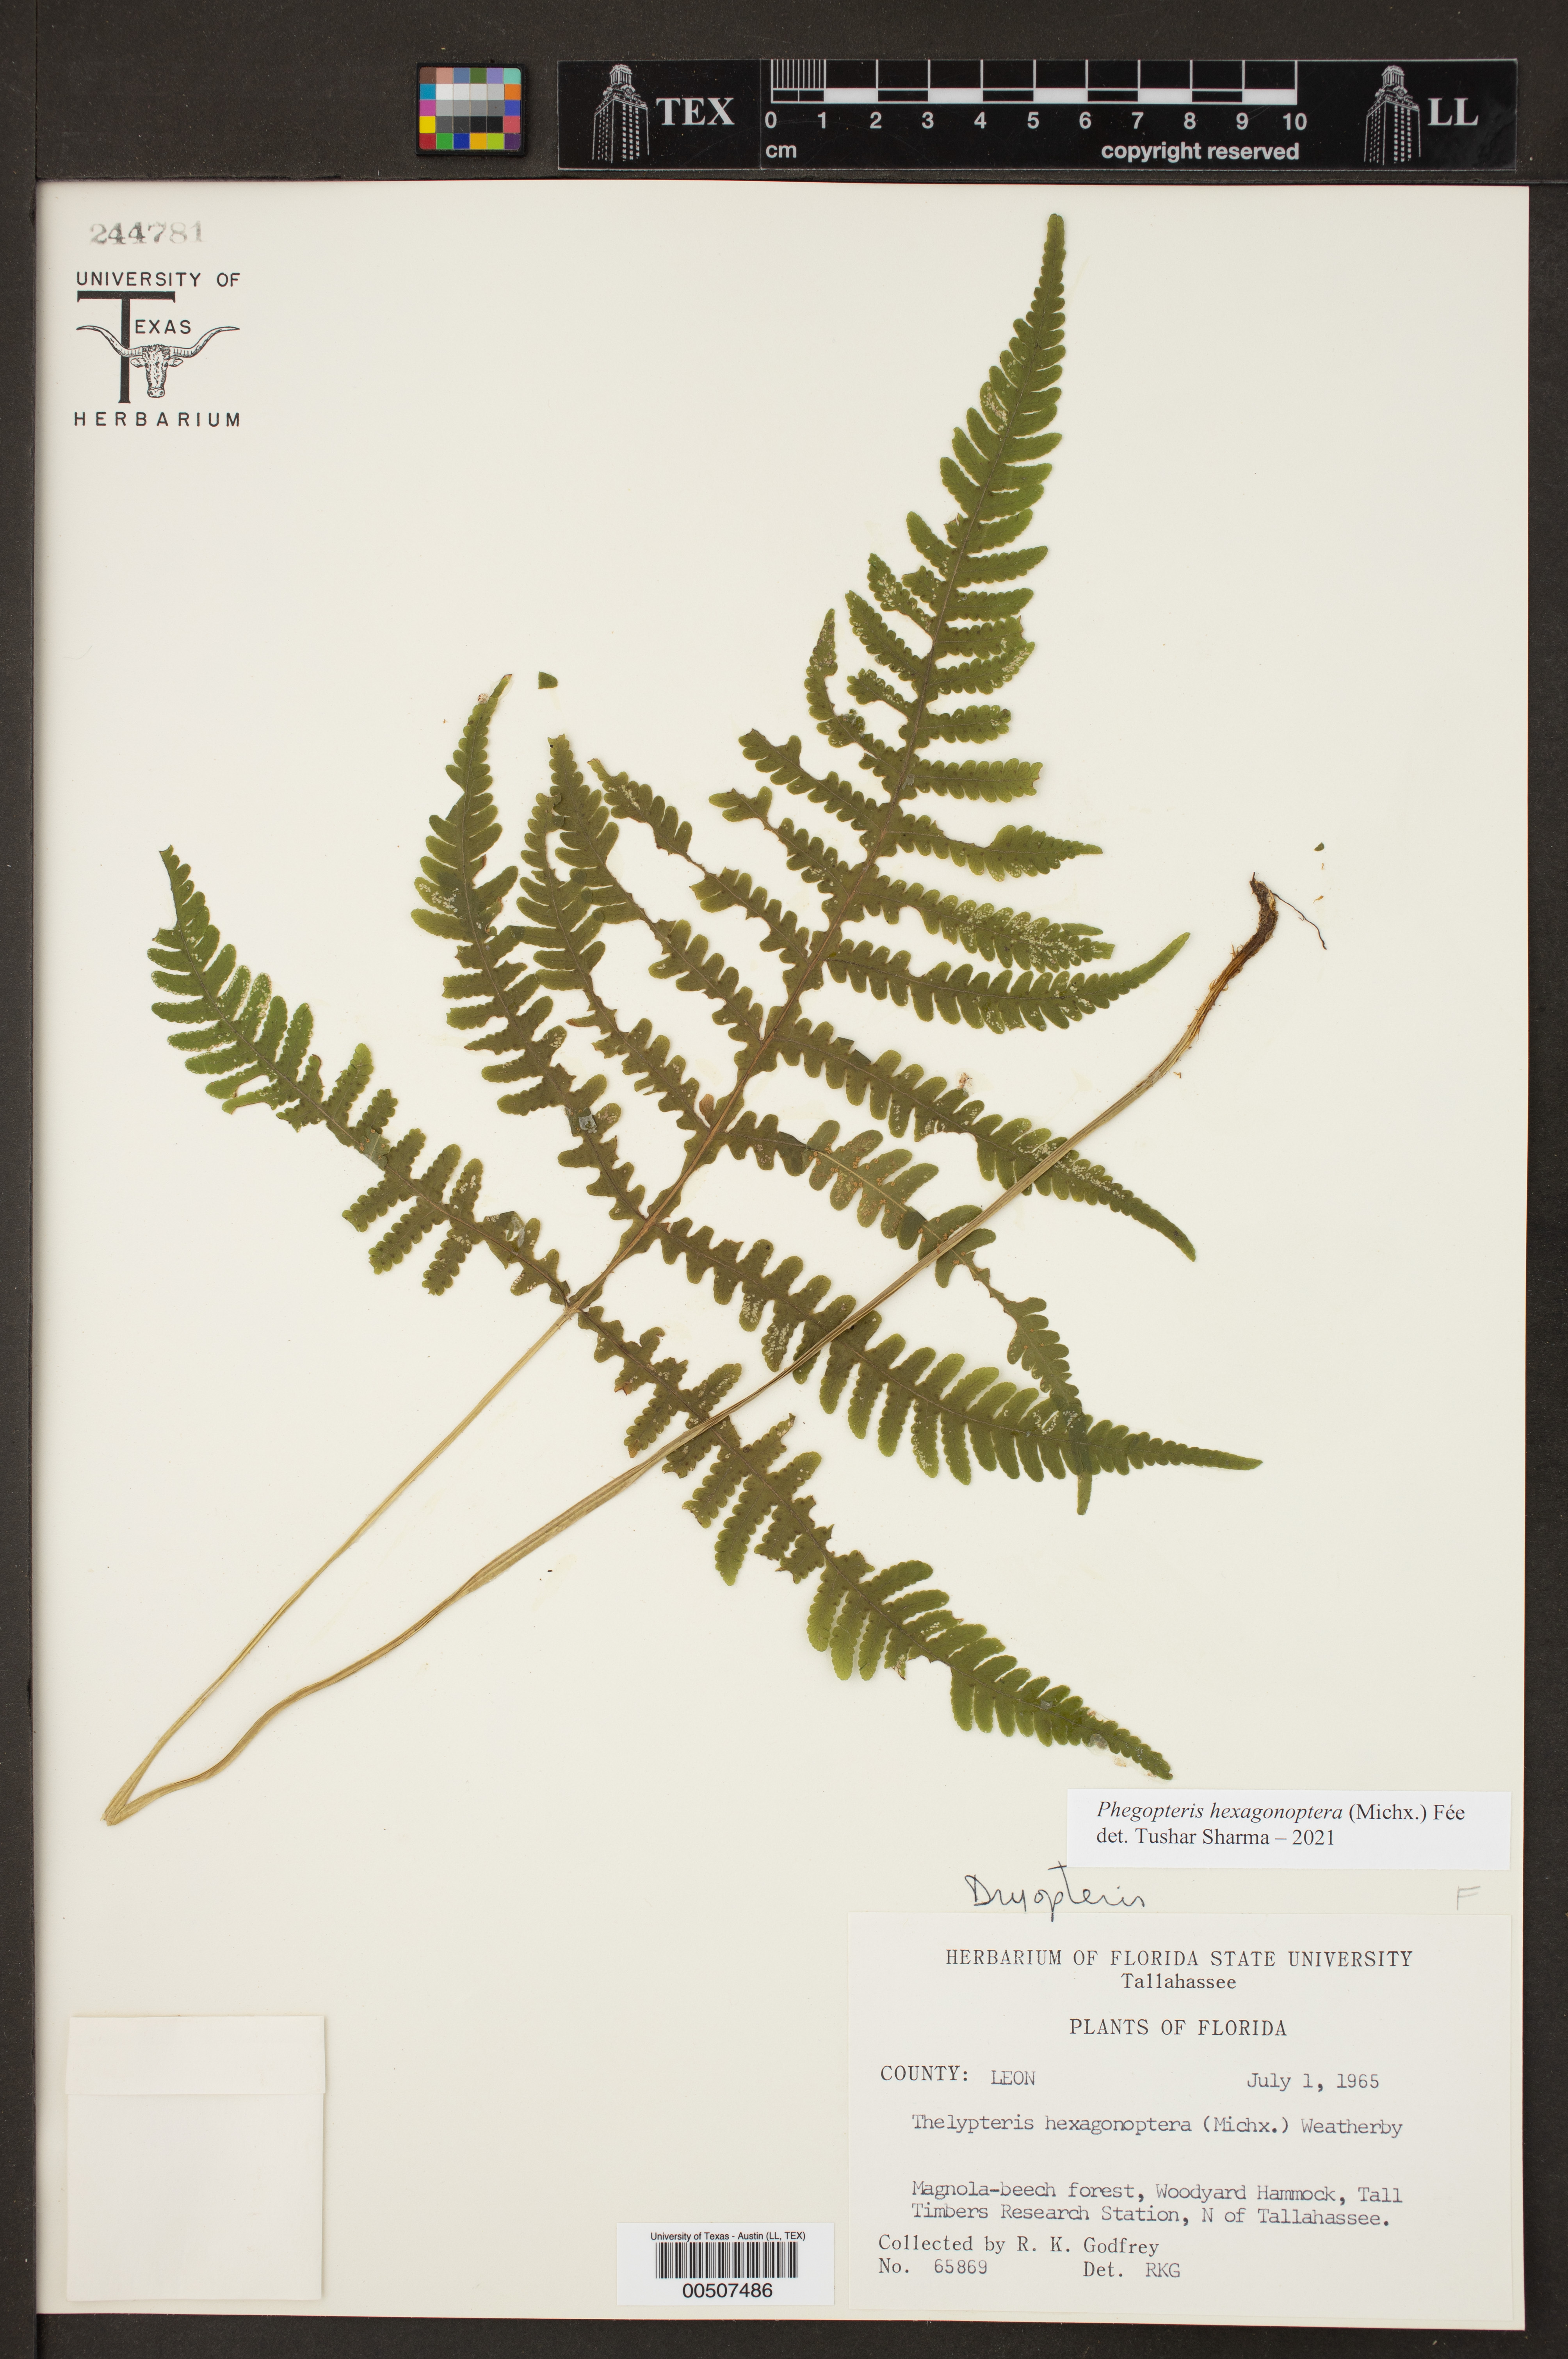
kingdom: Plantae
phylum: Tracheophyta
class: Polypodiopsida
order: Polypodiales
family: Thelypteridaceae
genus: Phegopteris
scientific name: Phegopteris hexagonoptera
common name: Broad beech fern
